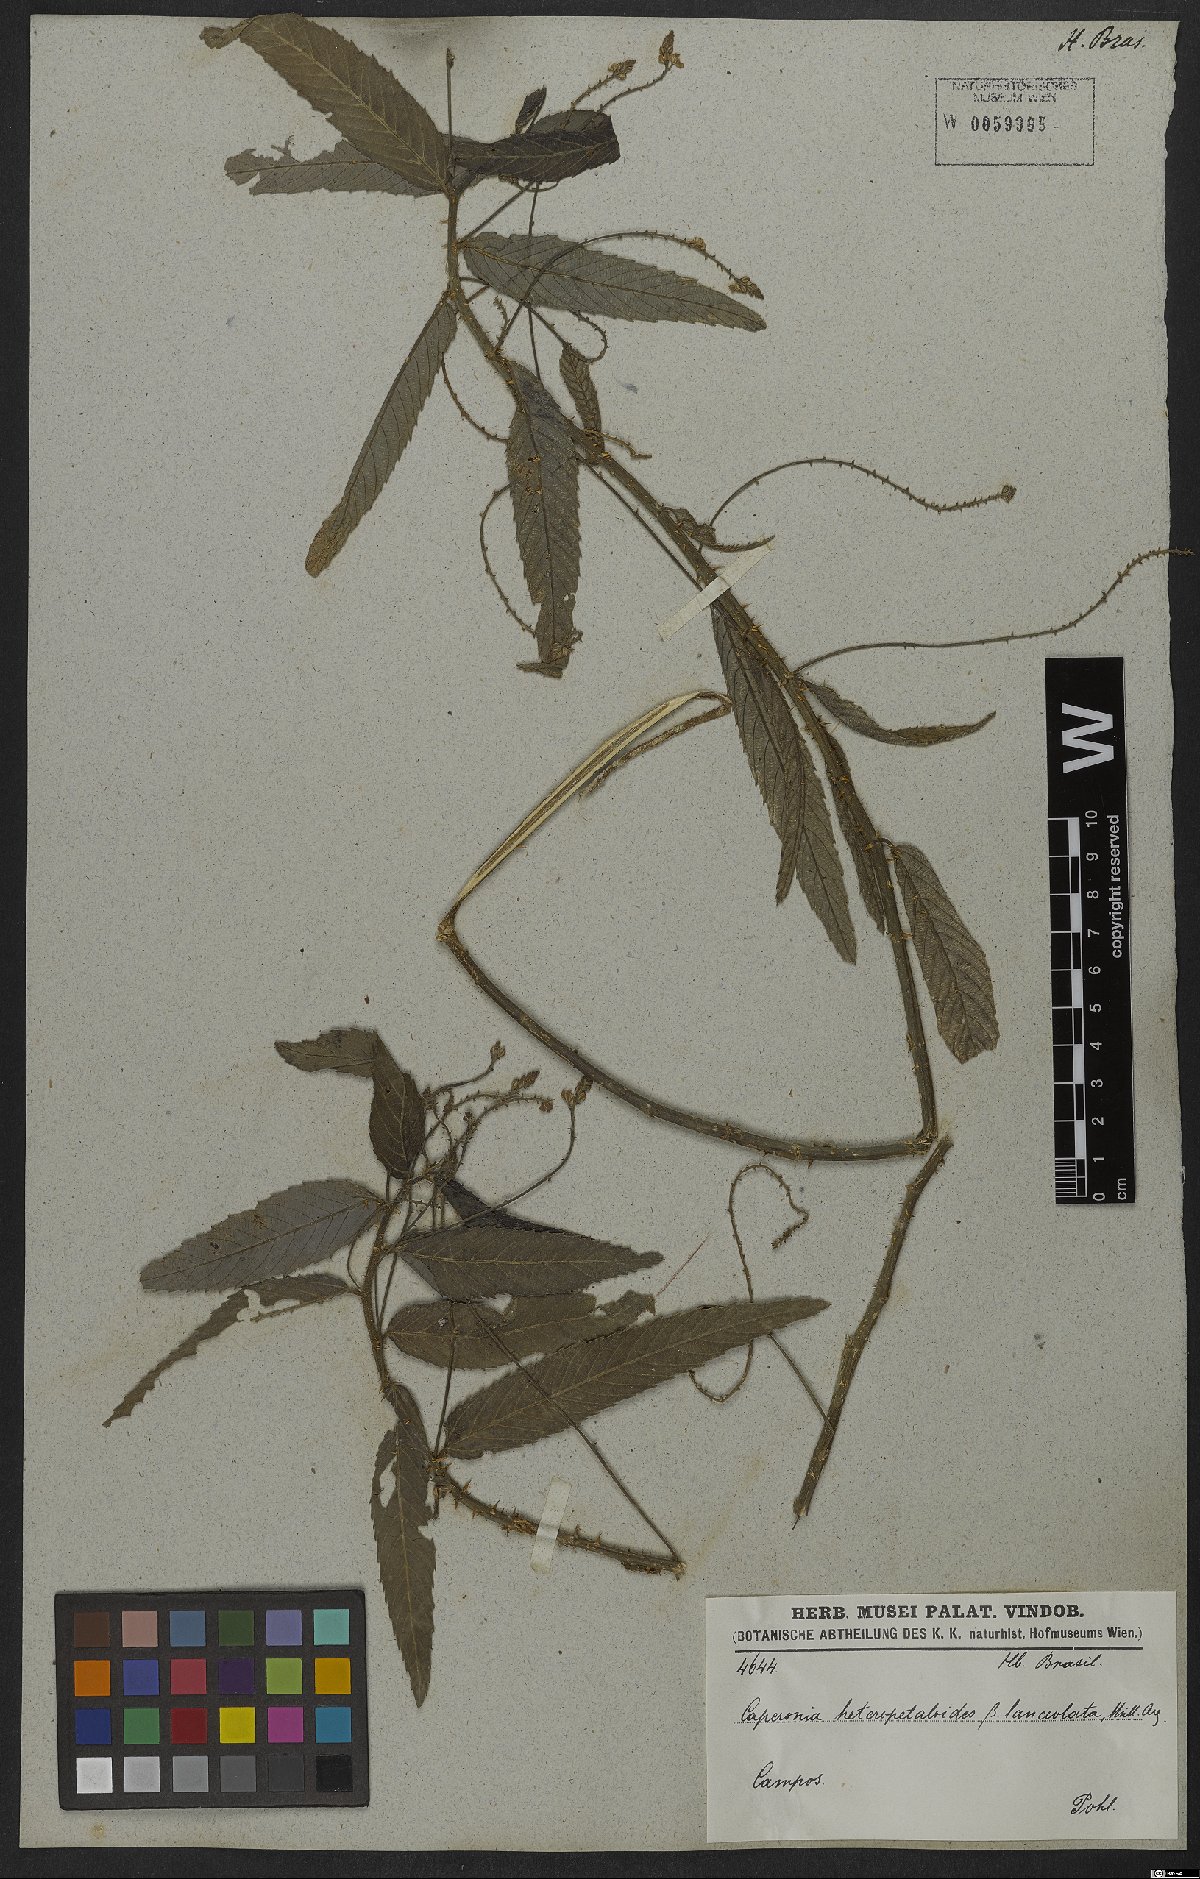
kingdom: Plantae
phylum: Tracheophyta
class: Magnoliopsida
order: Malpighiales
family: Euphorbiaceae
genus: Caperonia
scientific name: Caperonia heteropetala
